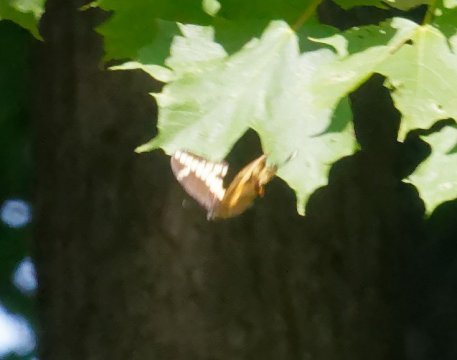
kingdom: Animalia
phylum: Arthropoda
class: Insecta
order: Lepidoptera
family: Papilionidae
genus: Papilio
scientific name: Papilio cresphontes
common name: Eastern Giant Swallowtail
